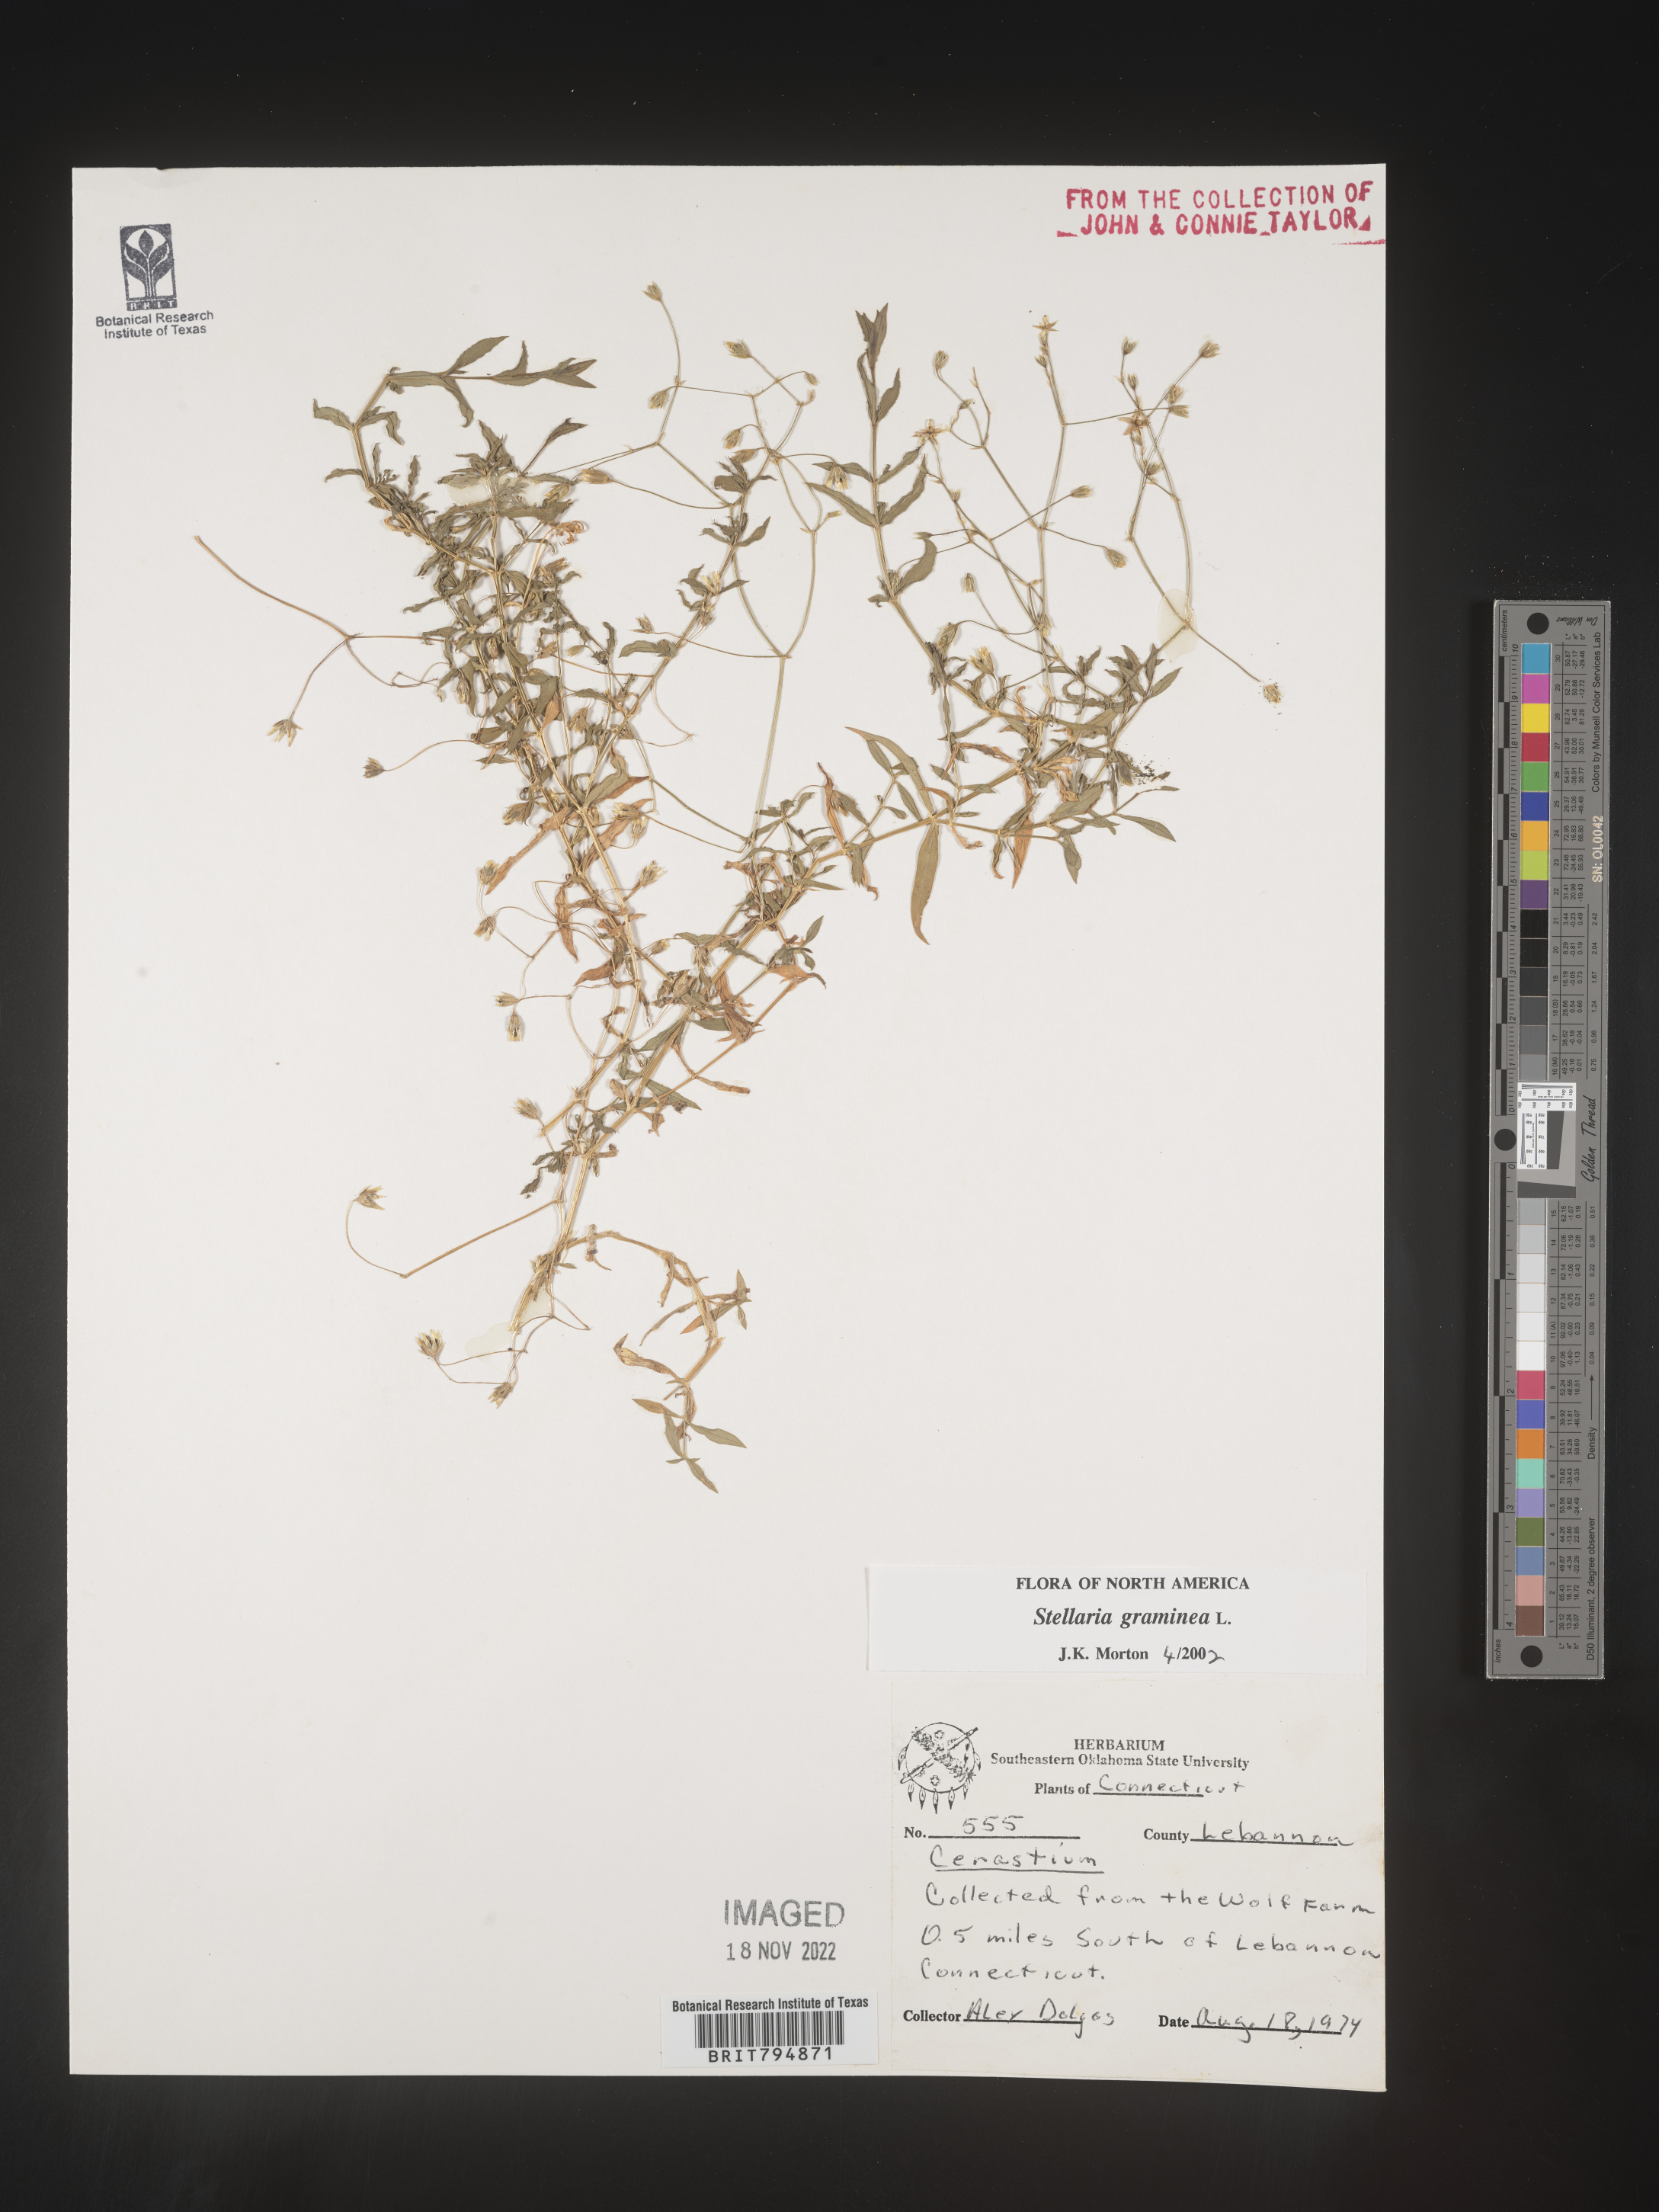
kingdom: Plantae
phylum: Tracheophyta
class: Magnoliopsida
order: Caryophyllales
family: Caryophyllaceae
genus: Stellaria
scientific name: Stellaria graminea
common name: Grass-like starwort
